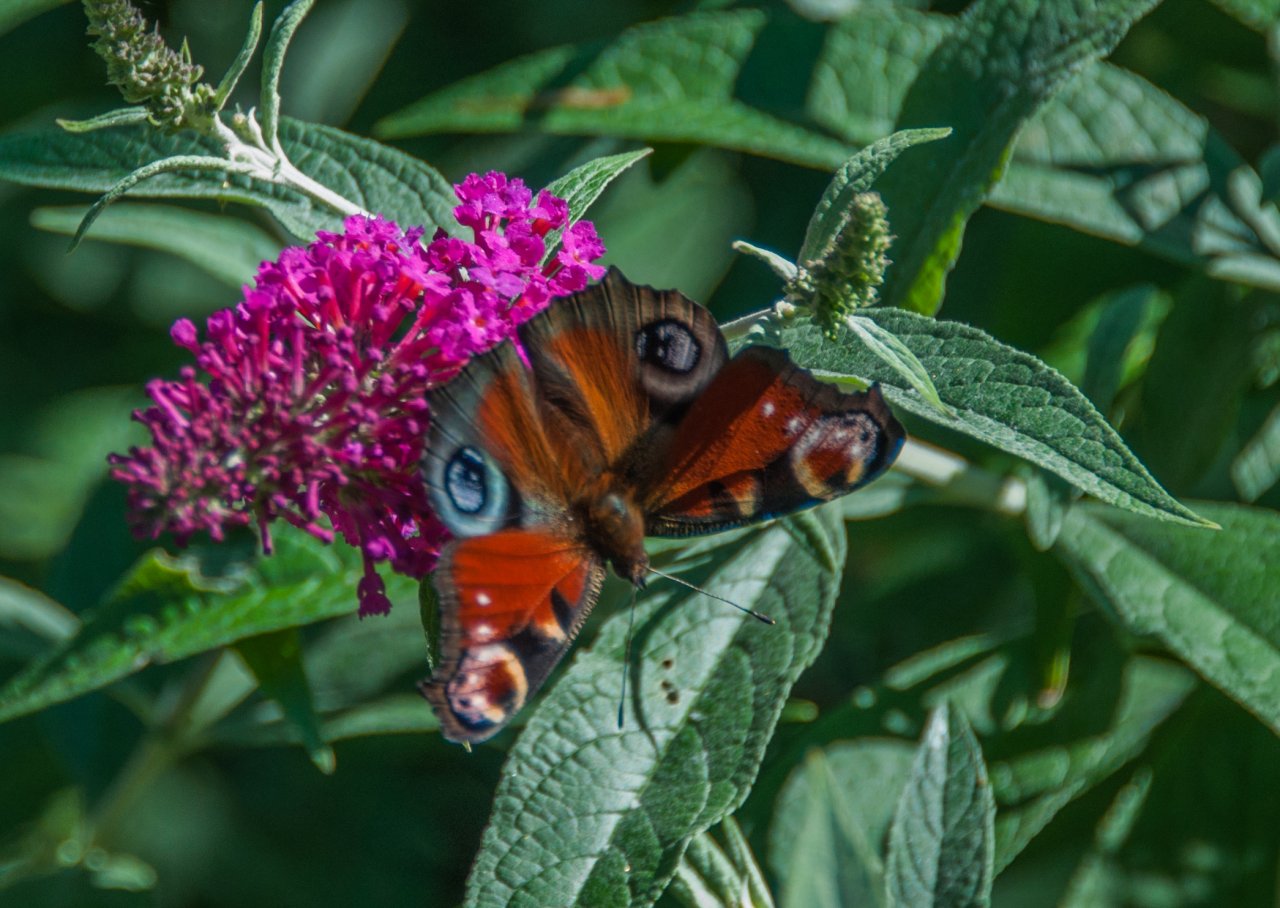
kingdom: Animalia
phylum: Arthropoda
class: Insecta
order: Lepidoptera
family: Nymphalidae
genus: Aglais
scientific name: Aglais io
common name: European Peacock
